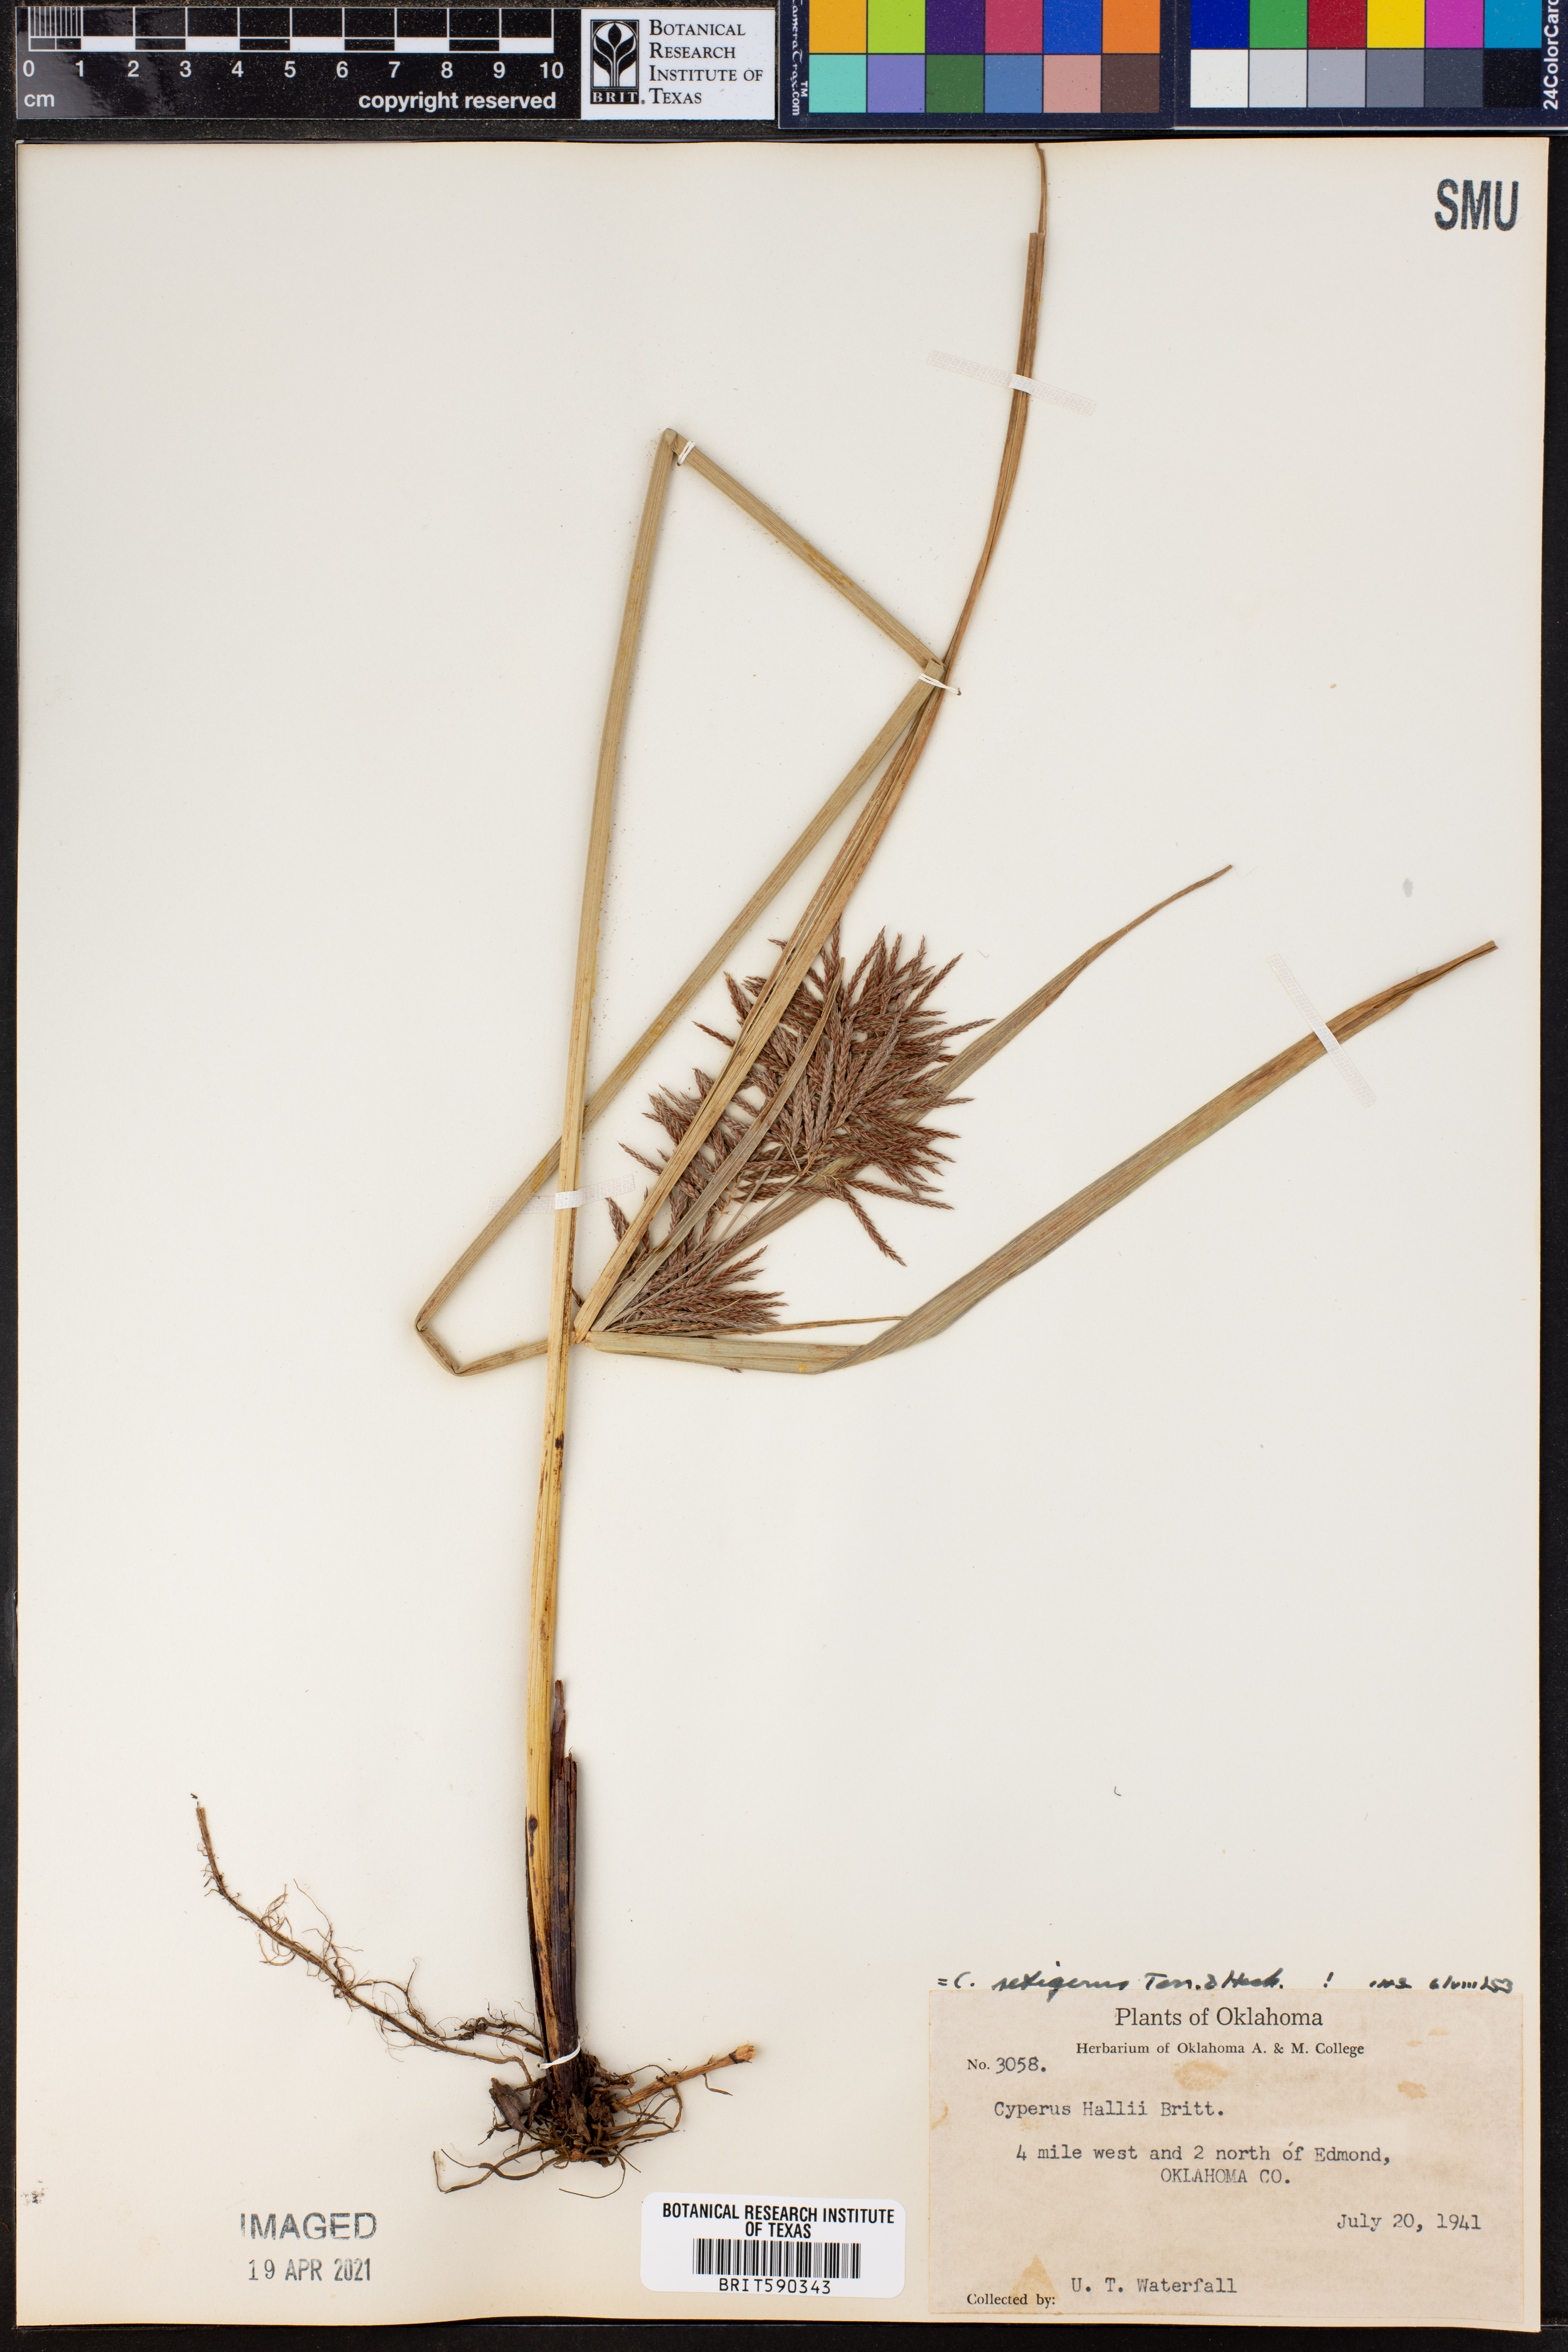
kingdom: Plantae
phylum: Tracheophyta
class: Liliopsida
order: Poales
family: Cyperaceae
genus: Cyperus
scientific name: Cyperus setigerus
